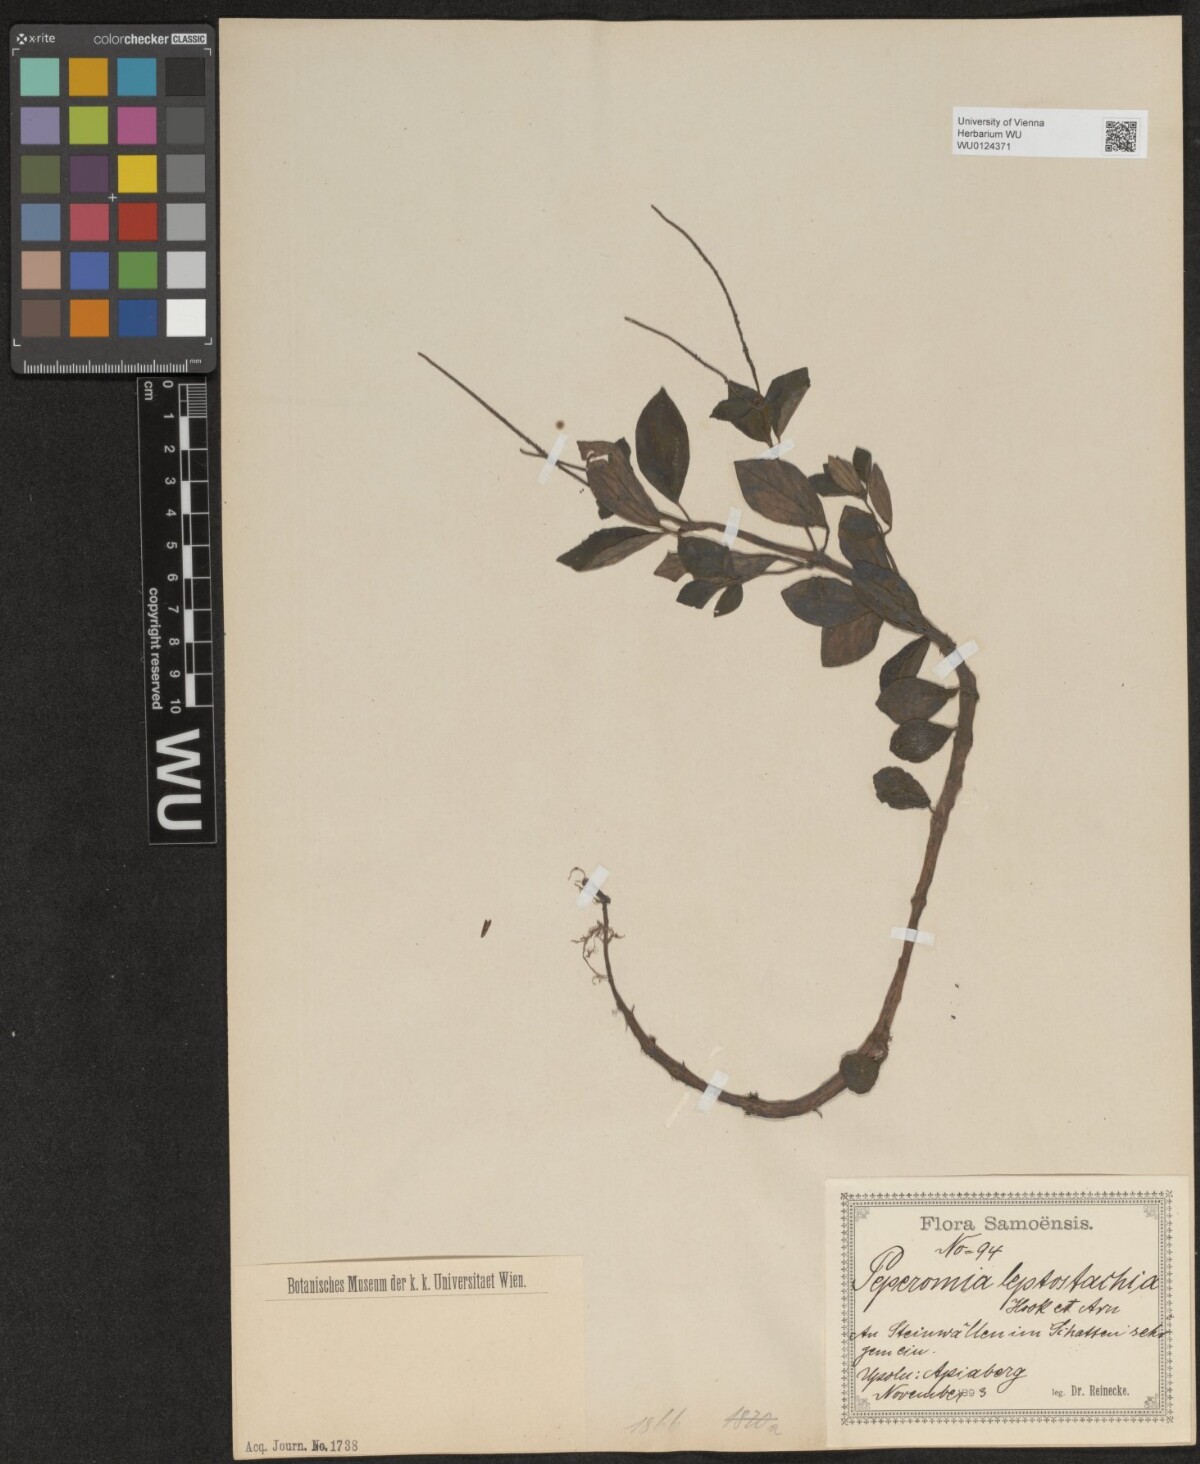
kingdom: Plantae
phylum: Tracheophyta
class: Magnoliopsida
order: Piperales
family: Piperaceae
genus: Peperomia
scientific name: Peperomia leptostachya
